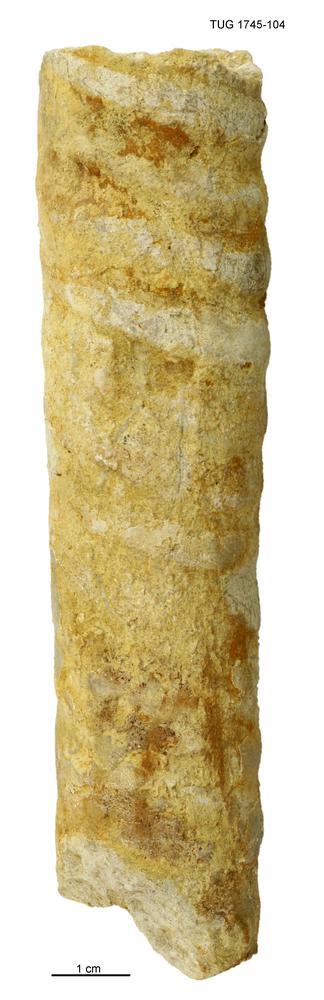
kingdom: Animalia
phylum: Mollusca
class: Cephalopoda
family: Endoceratidae
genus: Endoceras
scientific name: Endoceras
